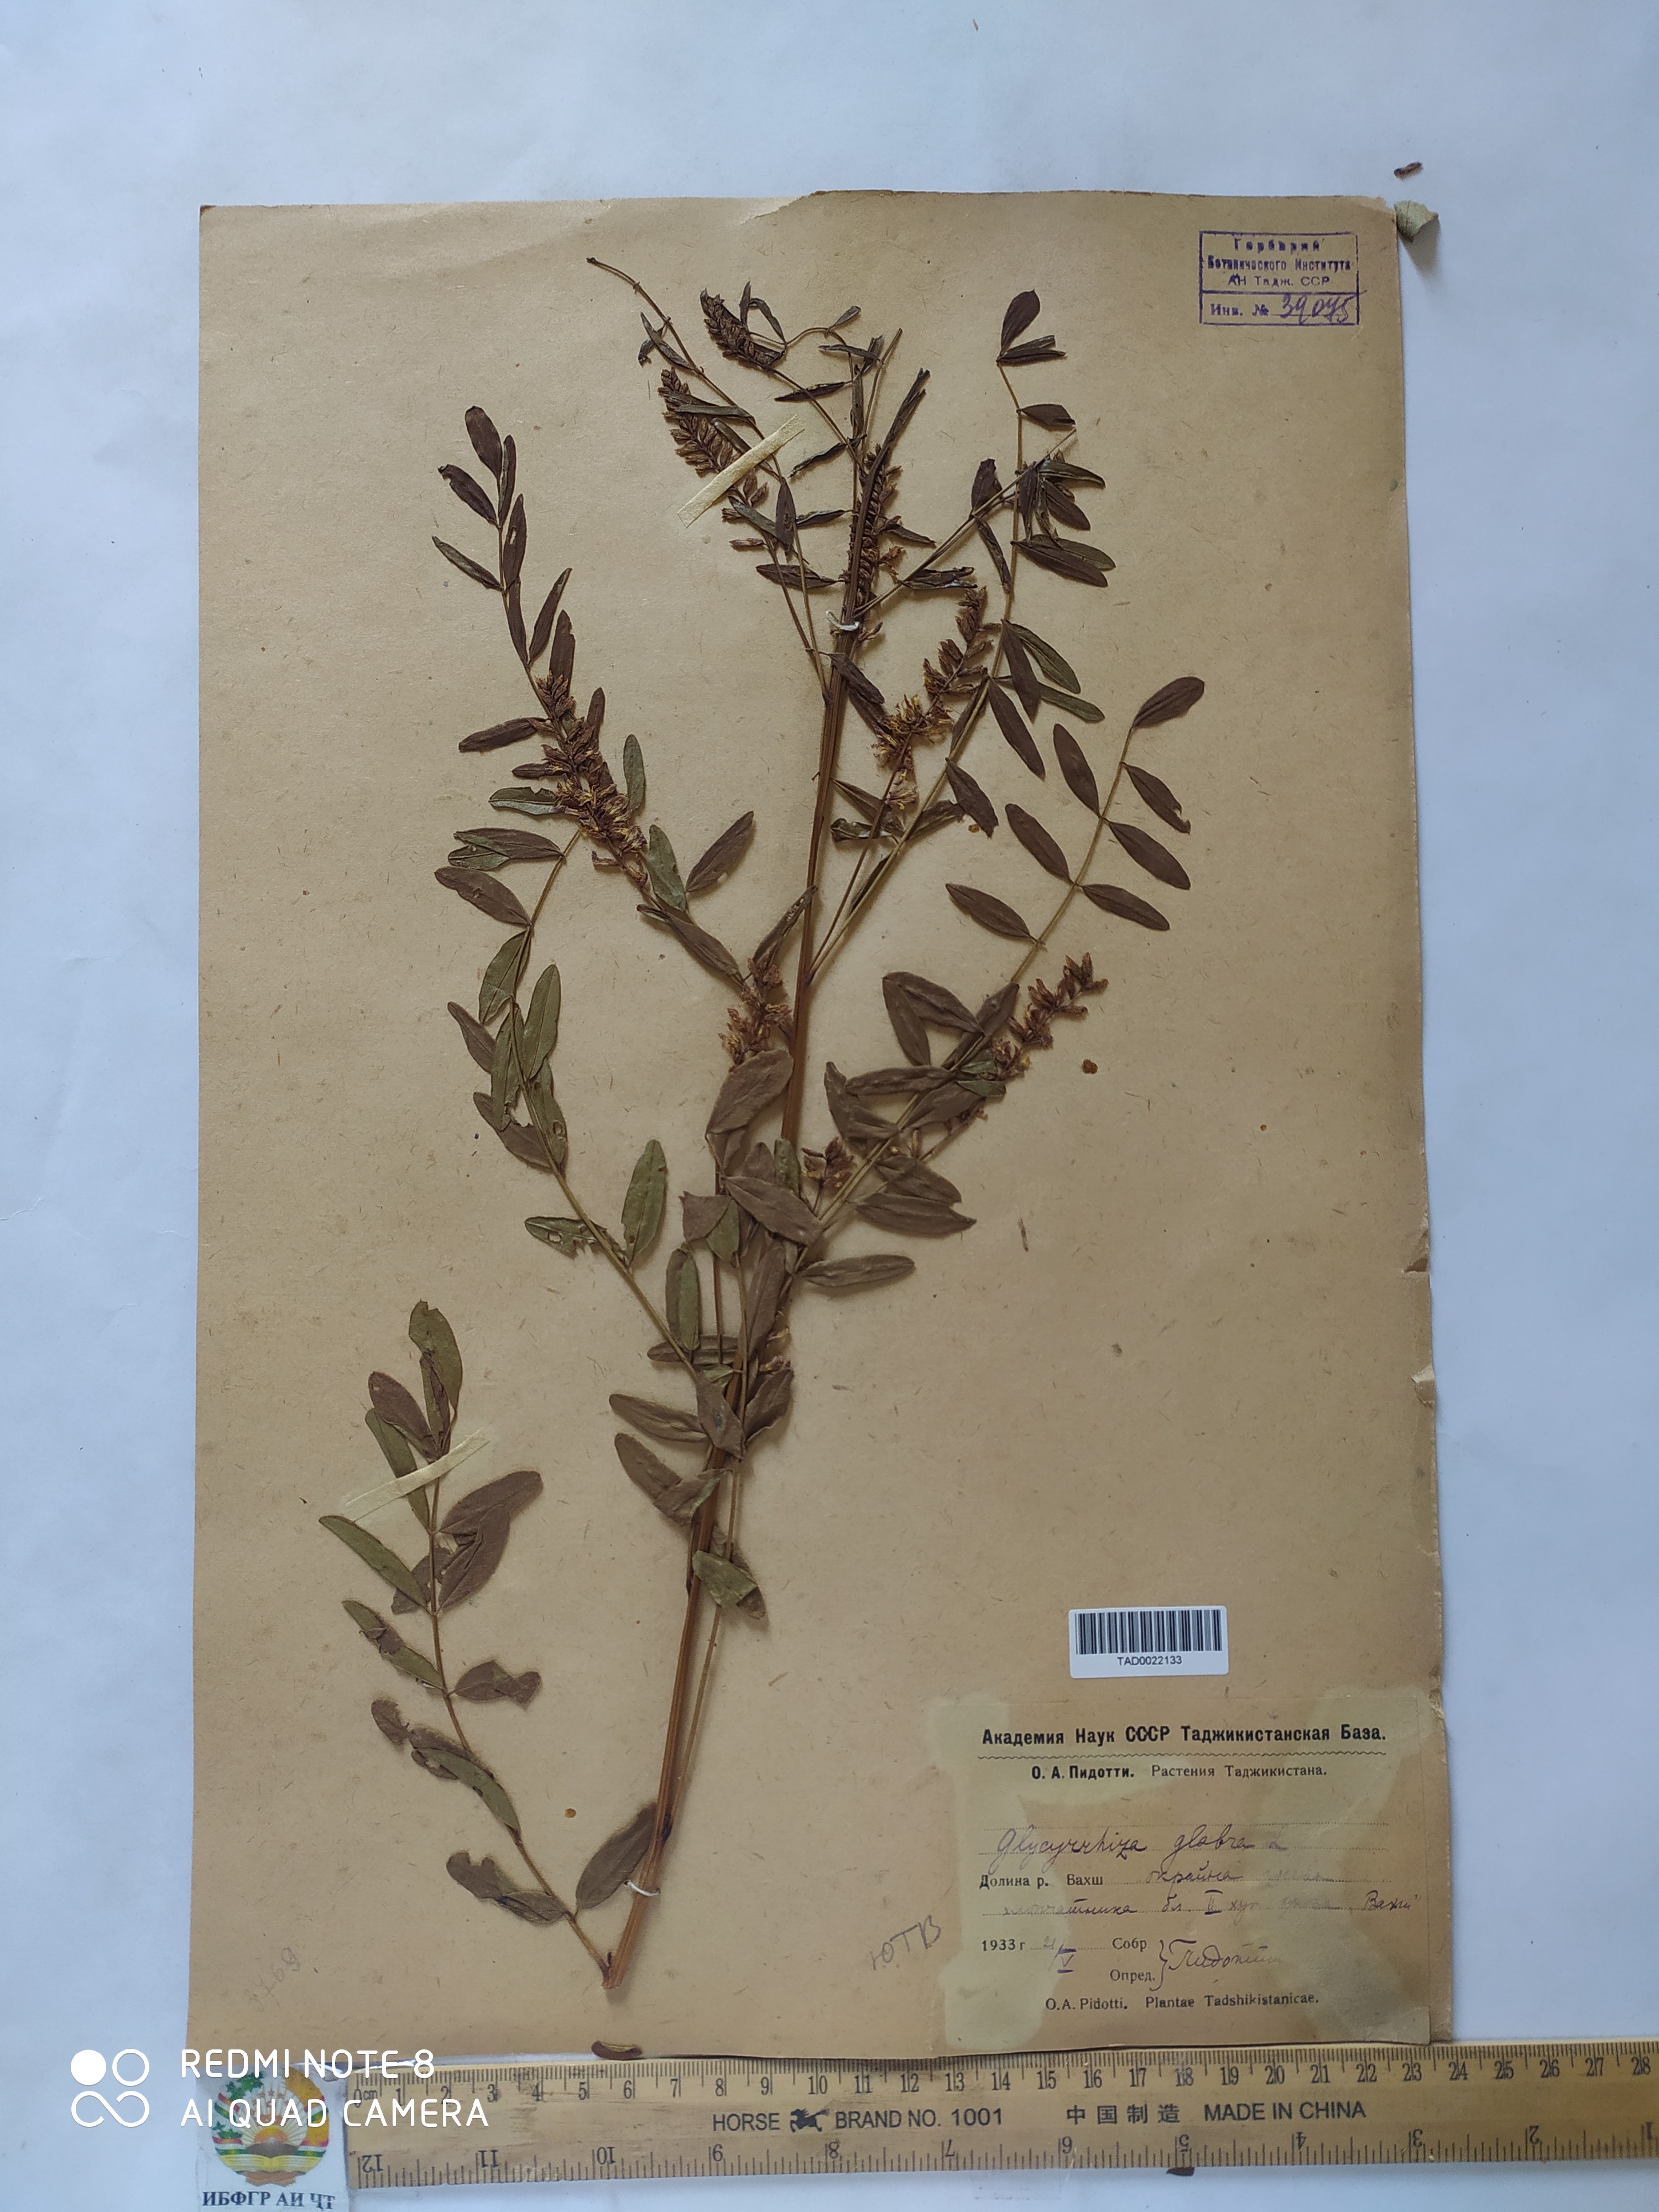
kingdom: Plantae
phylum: Tracheophyta
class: Magnoliopsida
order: Fabales
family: Fabaceae
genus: Glycyrrhiza
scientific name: Glycyrrhiza glabra
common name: Liquorice
